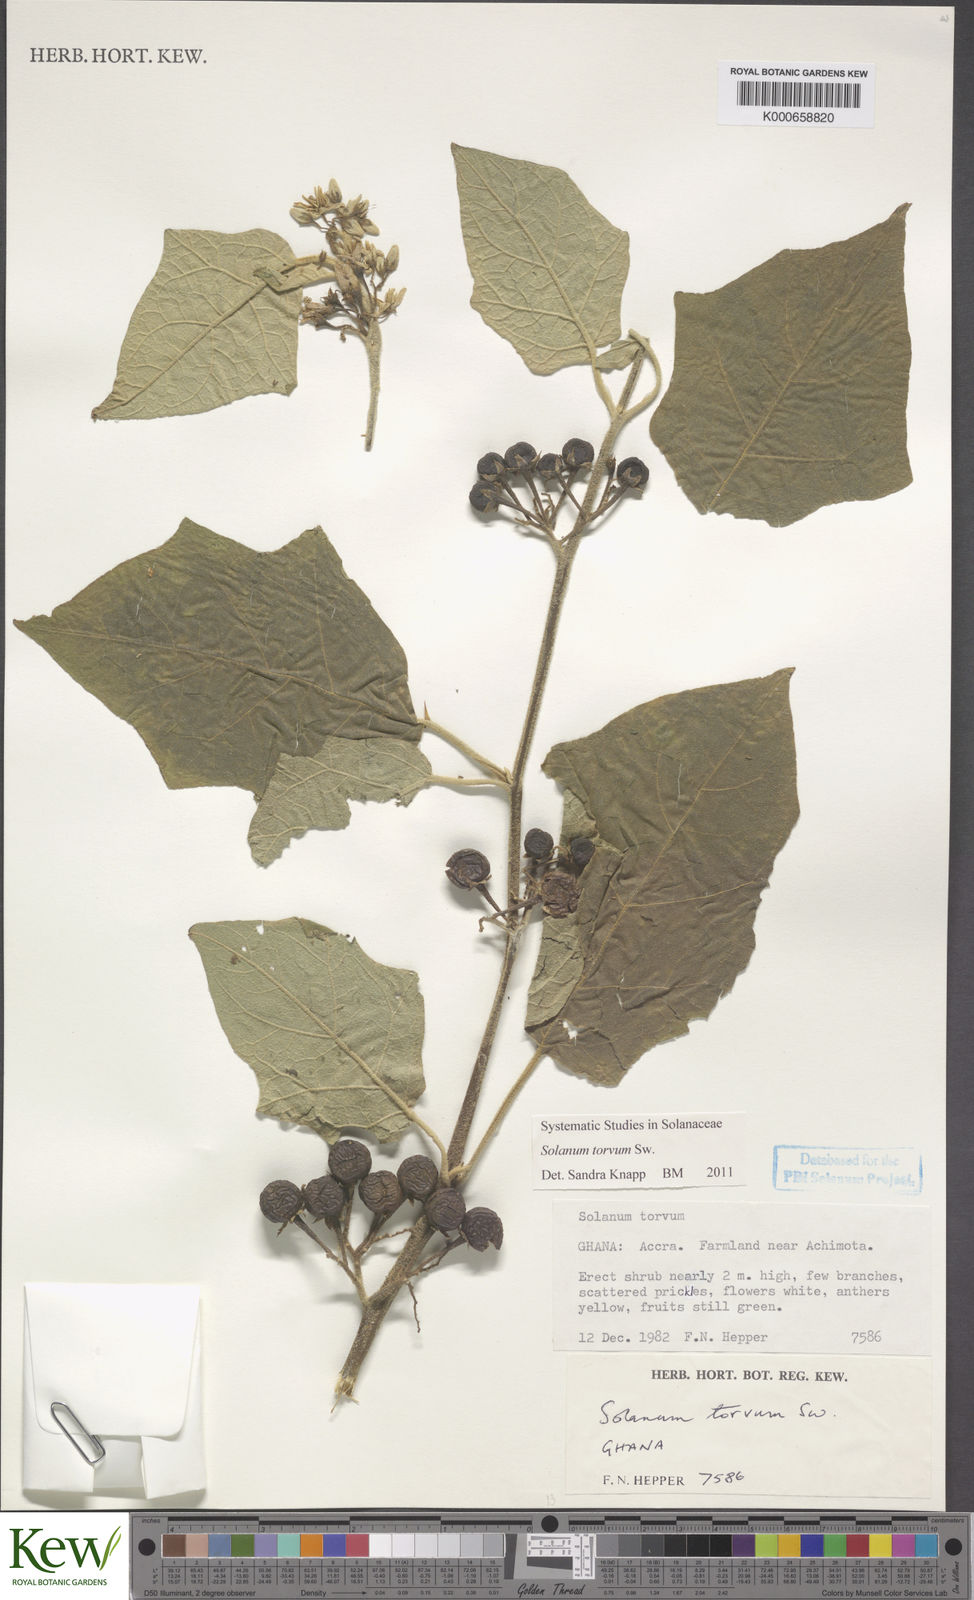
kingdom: Plantae
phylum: Tracheophyta
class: Magnoliopsida
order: Solanales
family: Solanaceae
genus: Solanum
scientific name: Solanum torvum
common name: Turkey berry
